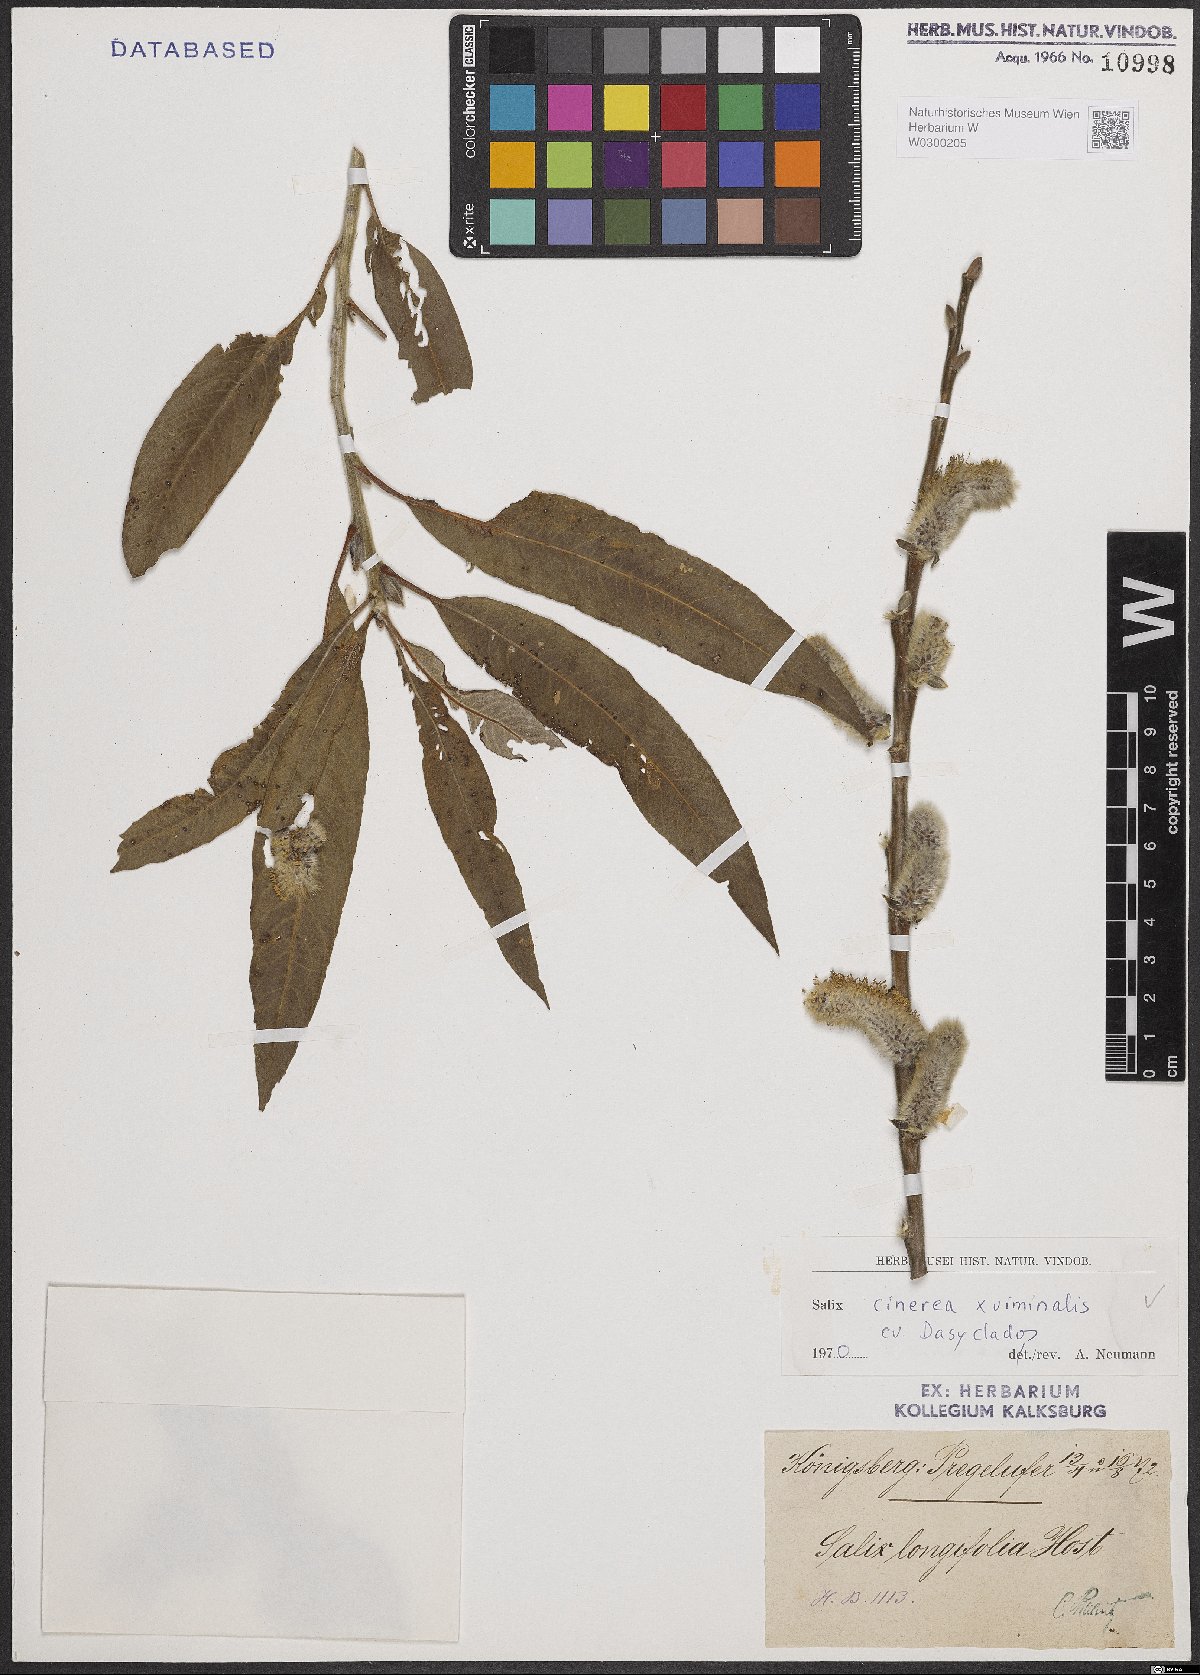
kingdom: Plantae
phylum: Tracheophyta
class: Magnoliopsida
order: Malpighiales
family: Salicaceae
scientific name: Salicaceae
